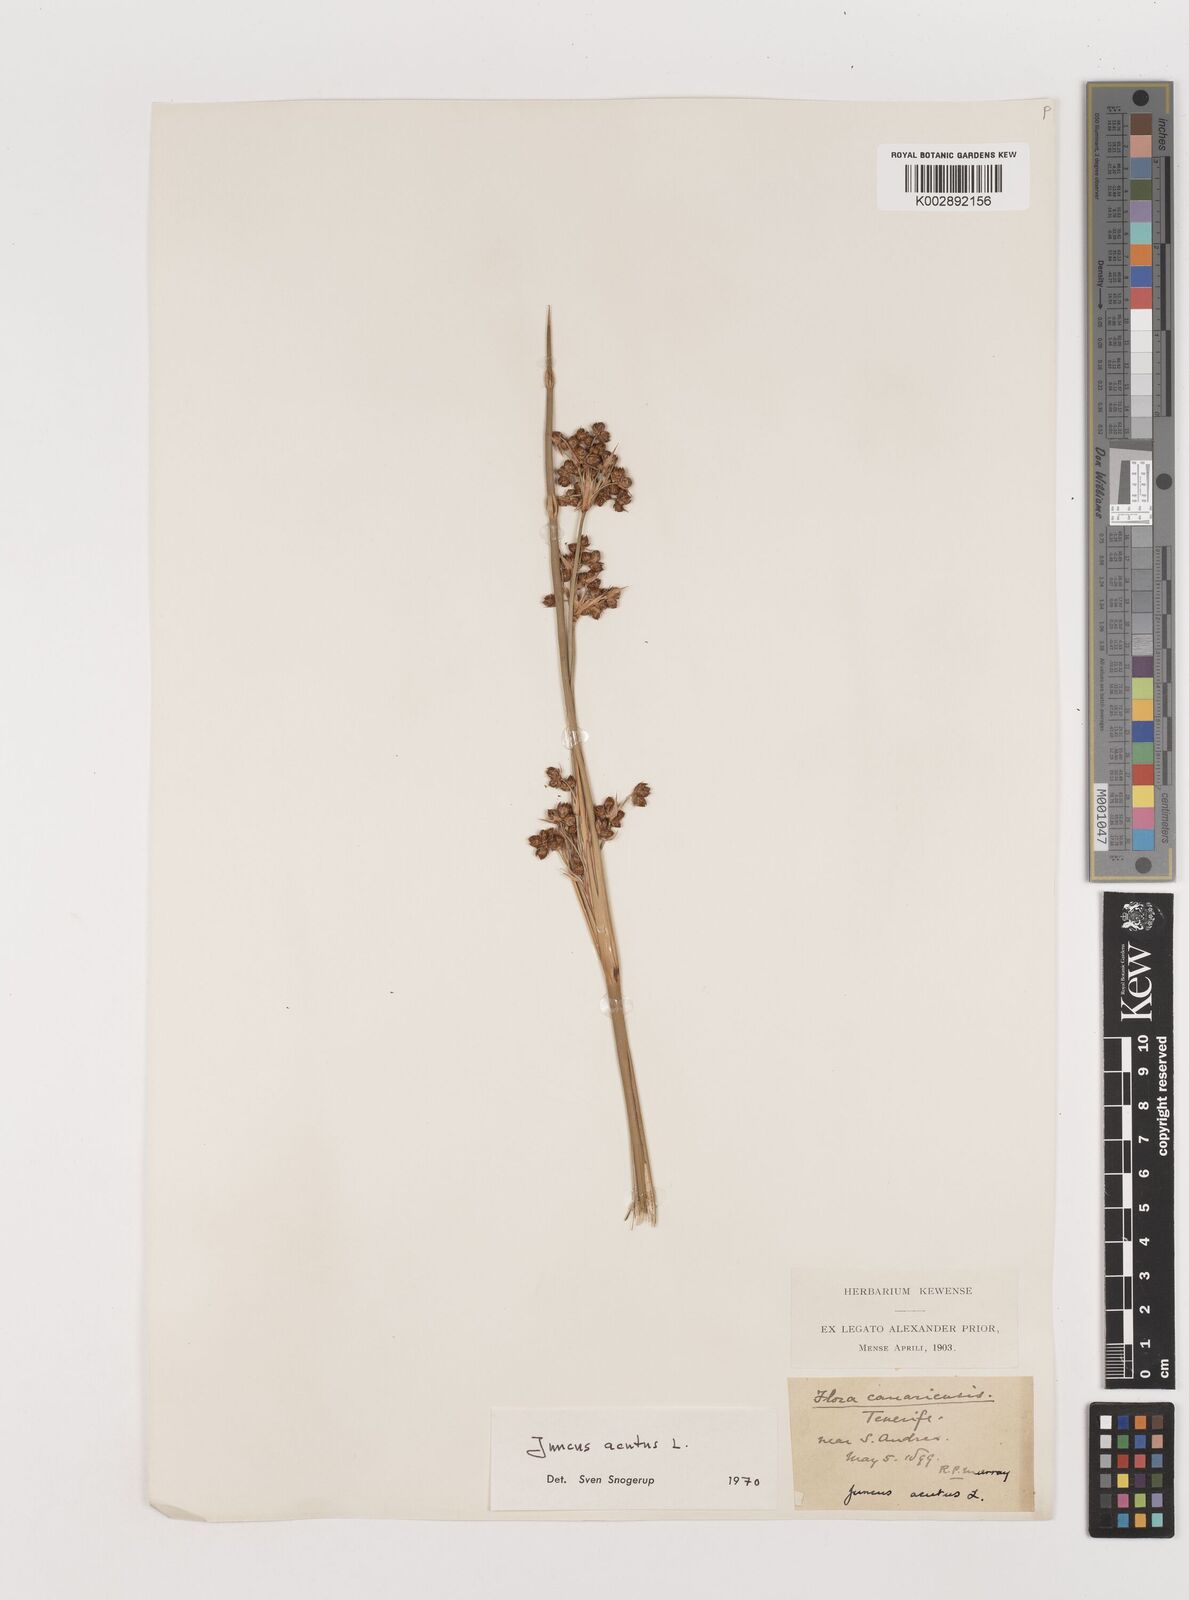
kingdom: Plantae
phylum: Tracheophyta
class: Liliopsida
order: Poales
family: Juncaceae
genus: Juncus
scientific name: Juncus acutus
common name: Sharp rush
